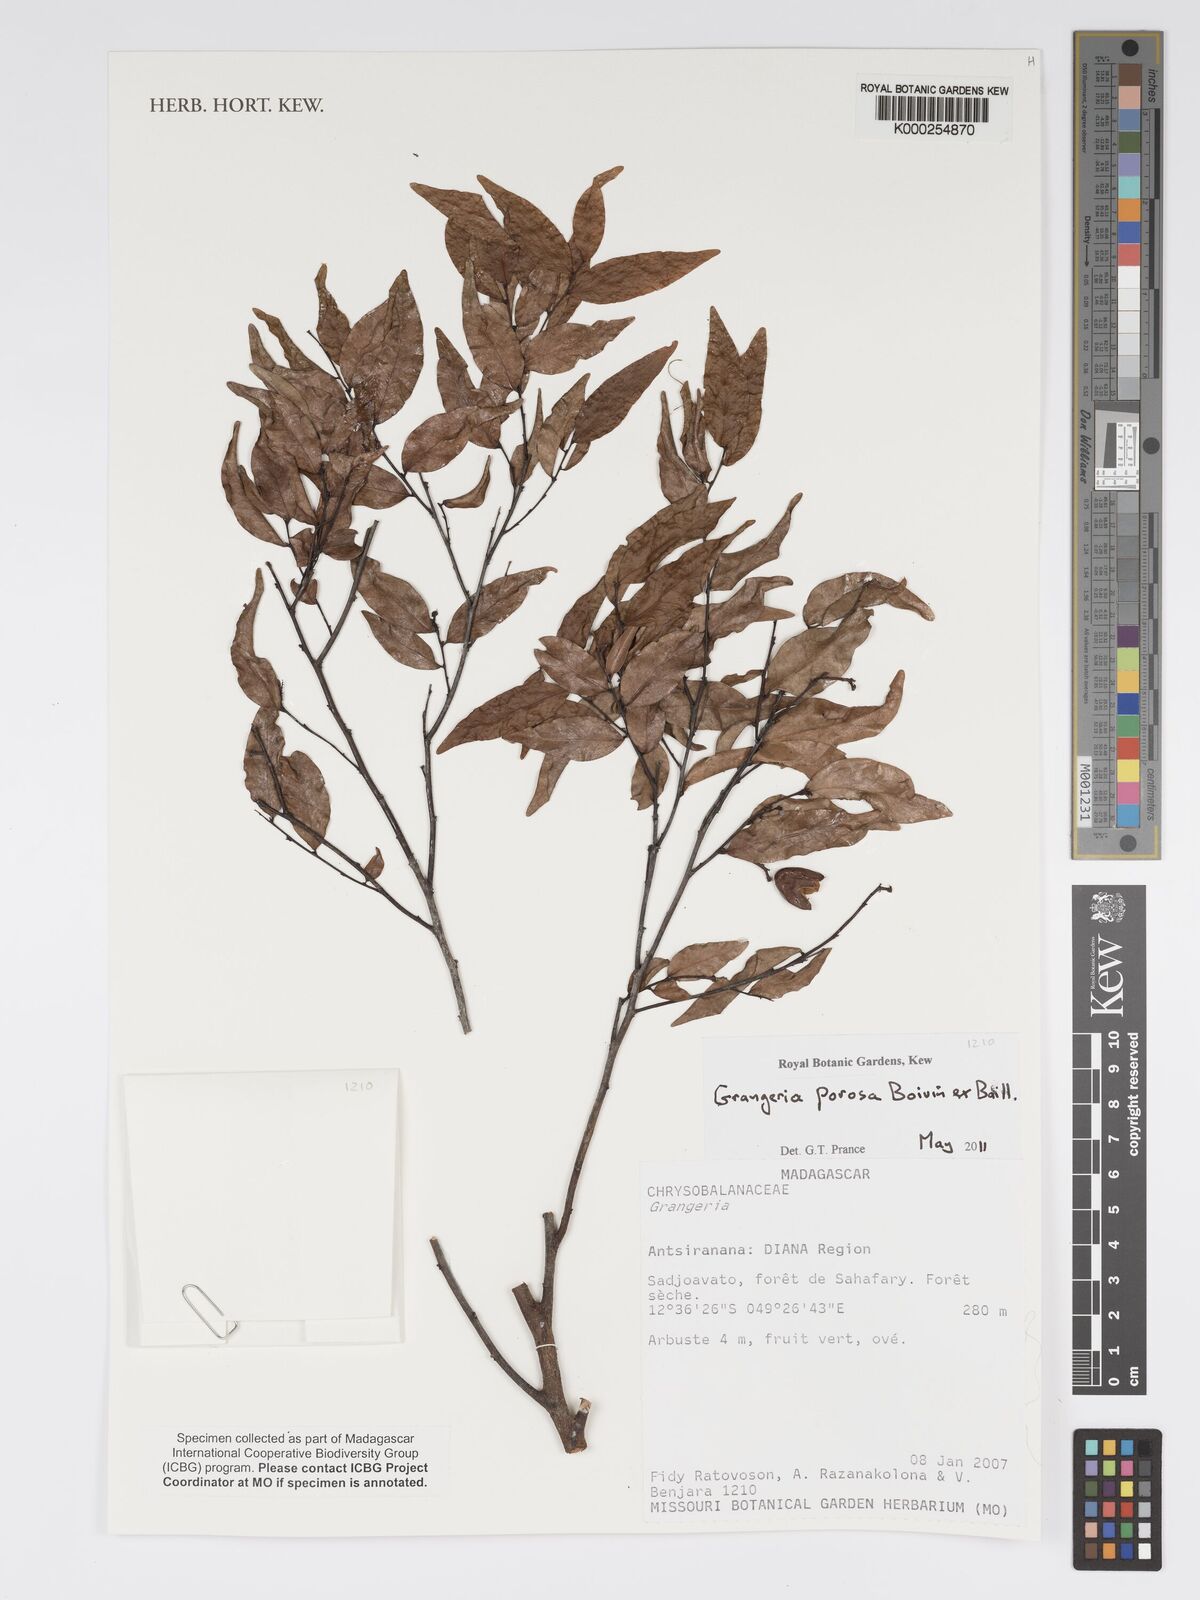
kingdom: Plantae
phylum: Tracheophyta
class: Magnoliopsida
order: Malpighiales
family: Chrysobalanaceae
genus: Grangeria
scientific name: Grangeria porosa
